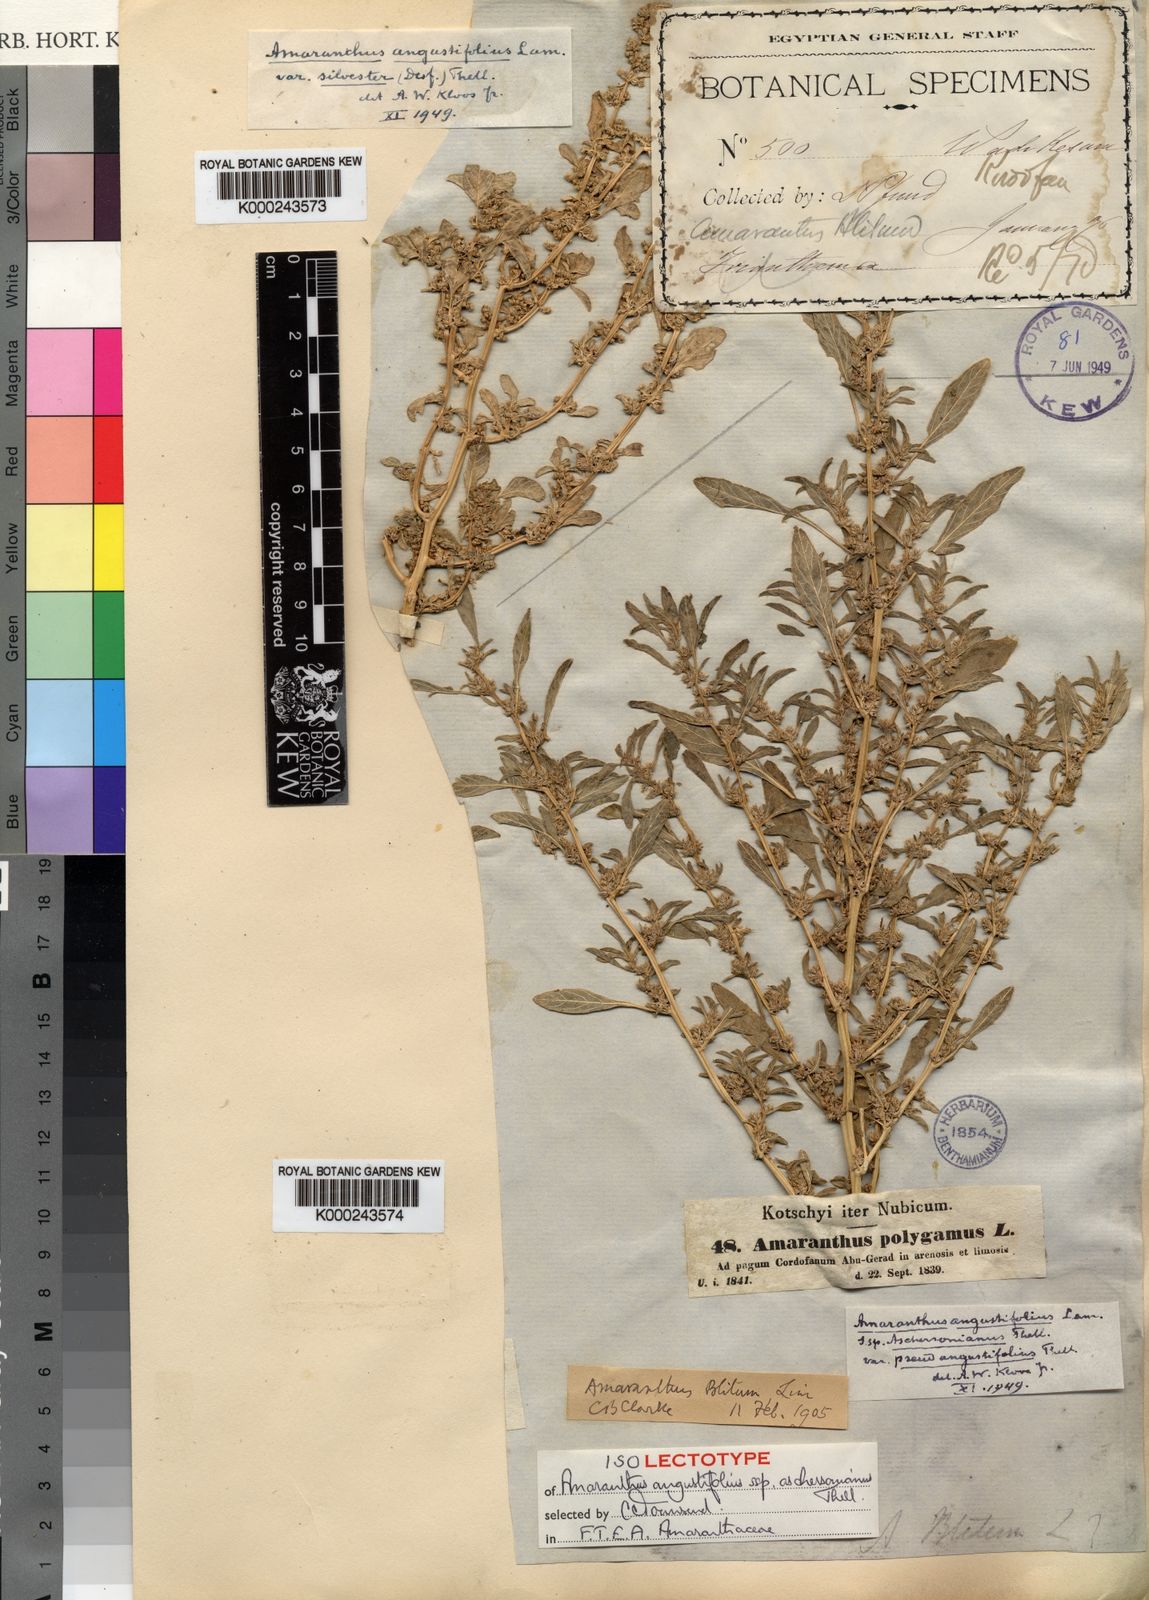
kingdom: Plantae
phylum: Tracheophyta
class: Magnoliopsida
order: Caryophyllales
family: Amaranthaceae
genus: Amaranthus
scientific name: Amaranthus graecizans
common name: Mediterranean amaranth
